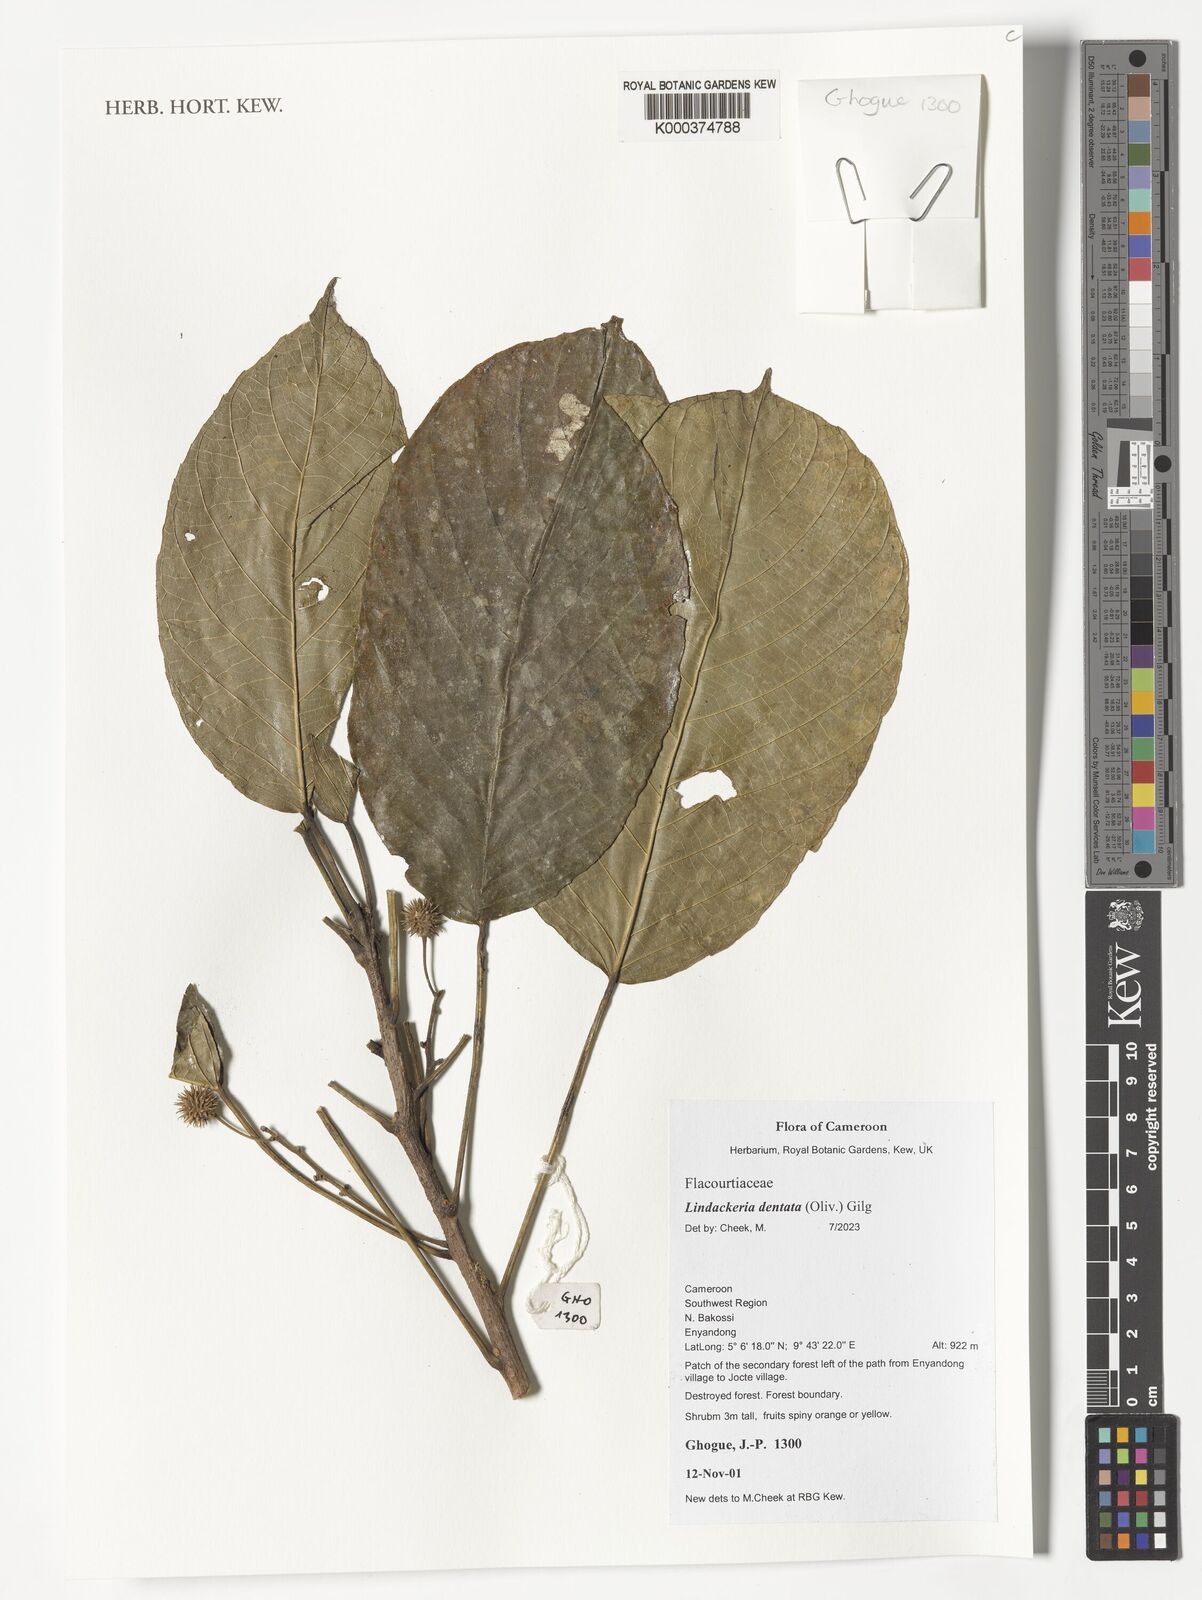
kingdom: Plantae
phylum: Tracheophyta
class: Magnoliopsida
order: Malpighiales
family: Achariaceae
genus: Lindackeria
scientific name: Lindackeria dentata
